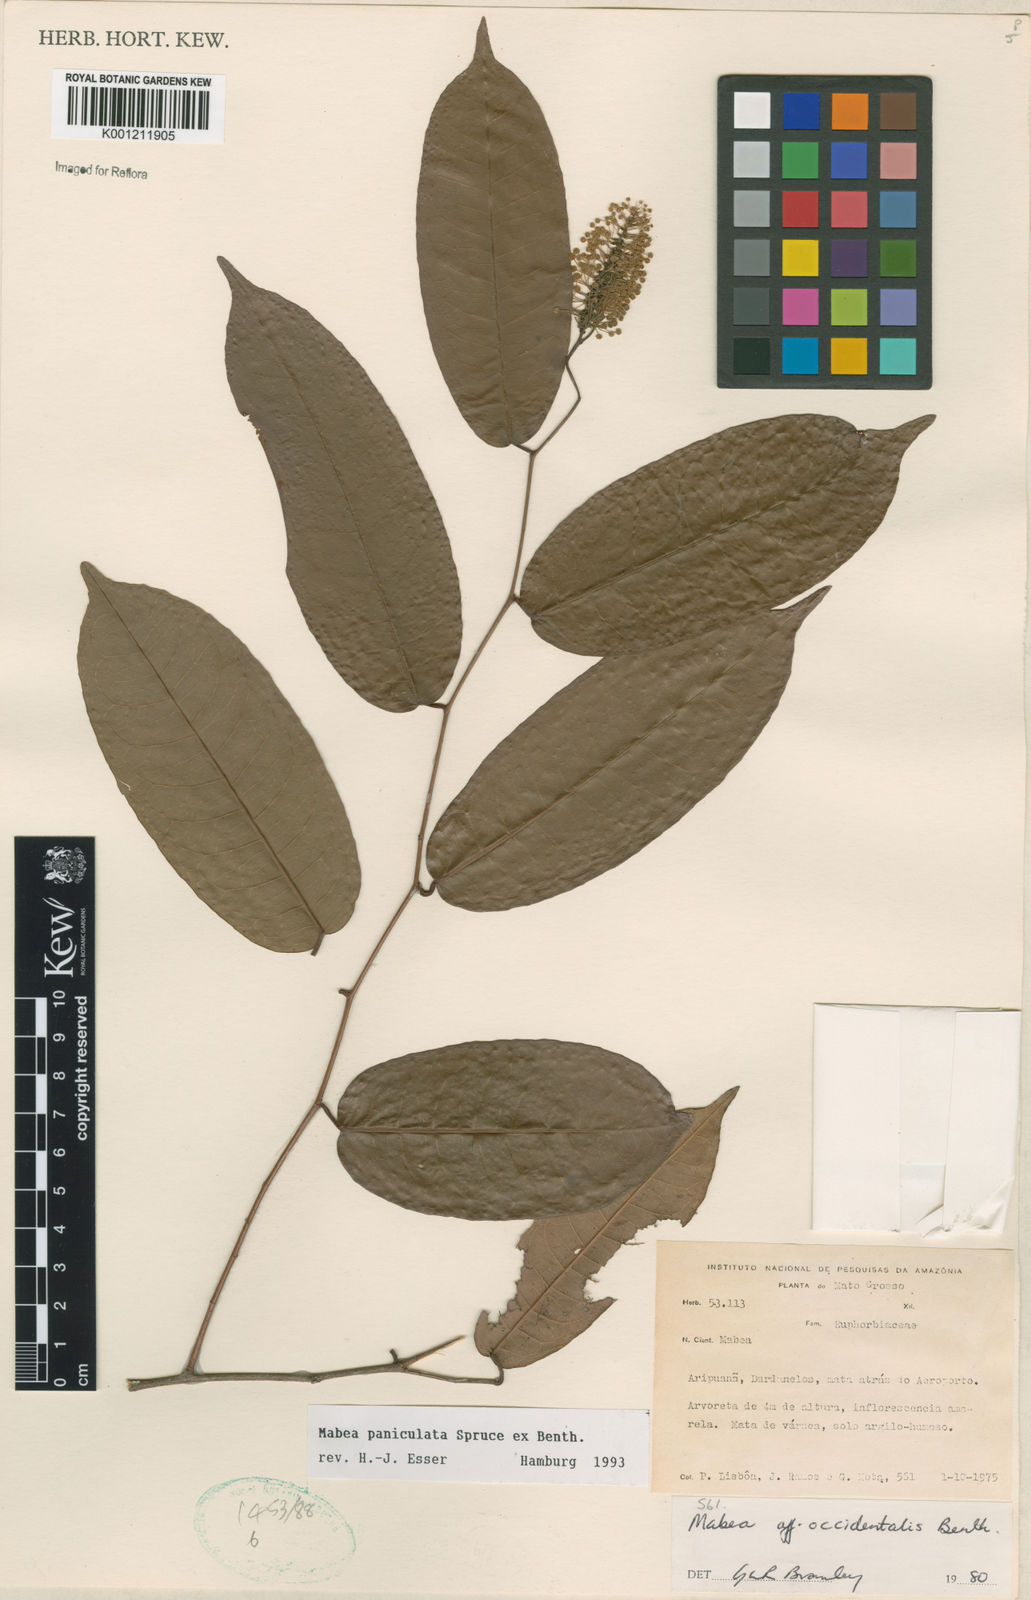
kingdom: Plantae
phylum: Tracheophyta
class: Magnoliopsida
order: Malpighiales
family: Euphorbiaceae
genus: Mabea
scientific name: Mabea paniculata
